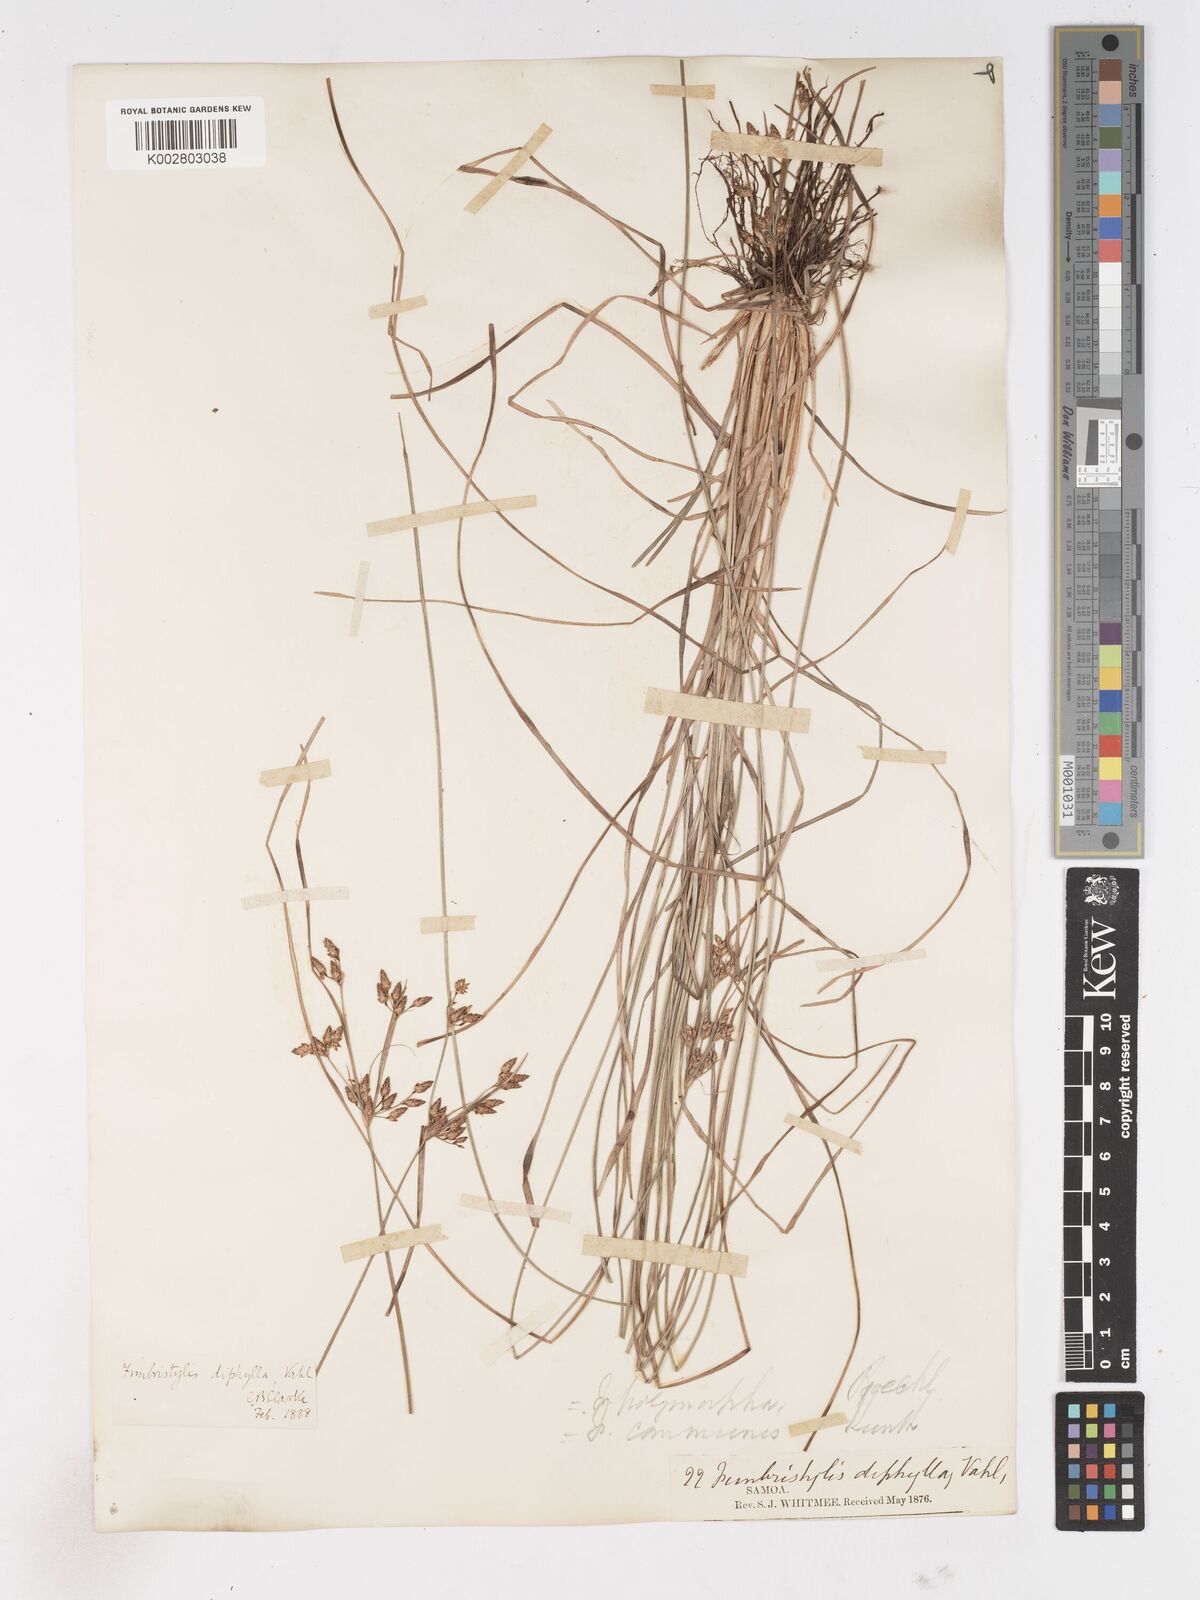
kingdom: Plantae
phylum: Tracheophyta
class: Liliopsida
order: Poales
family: Cyperaceae
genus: Fimbristylis
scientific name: Fimbristylis dichotoma
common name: Forked fimbry
